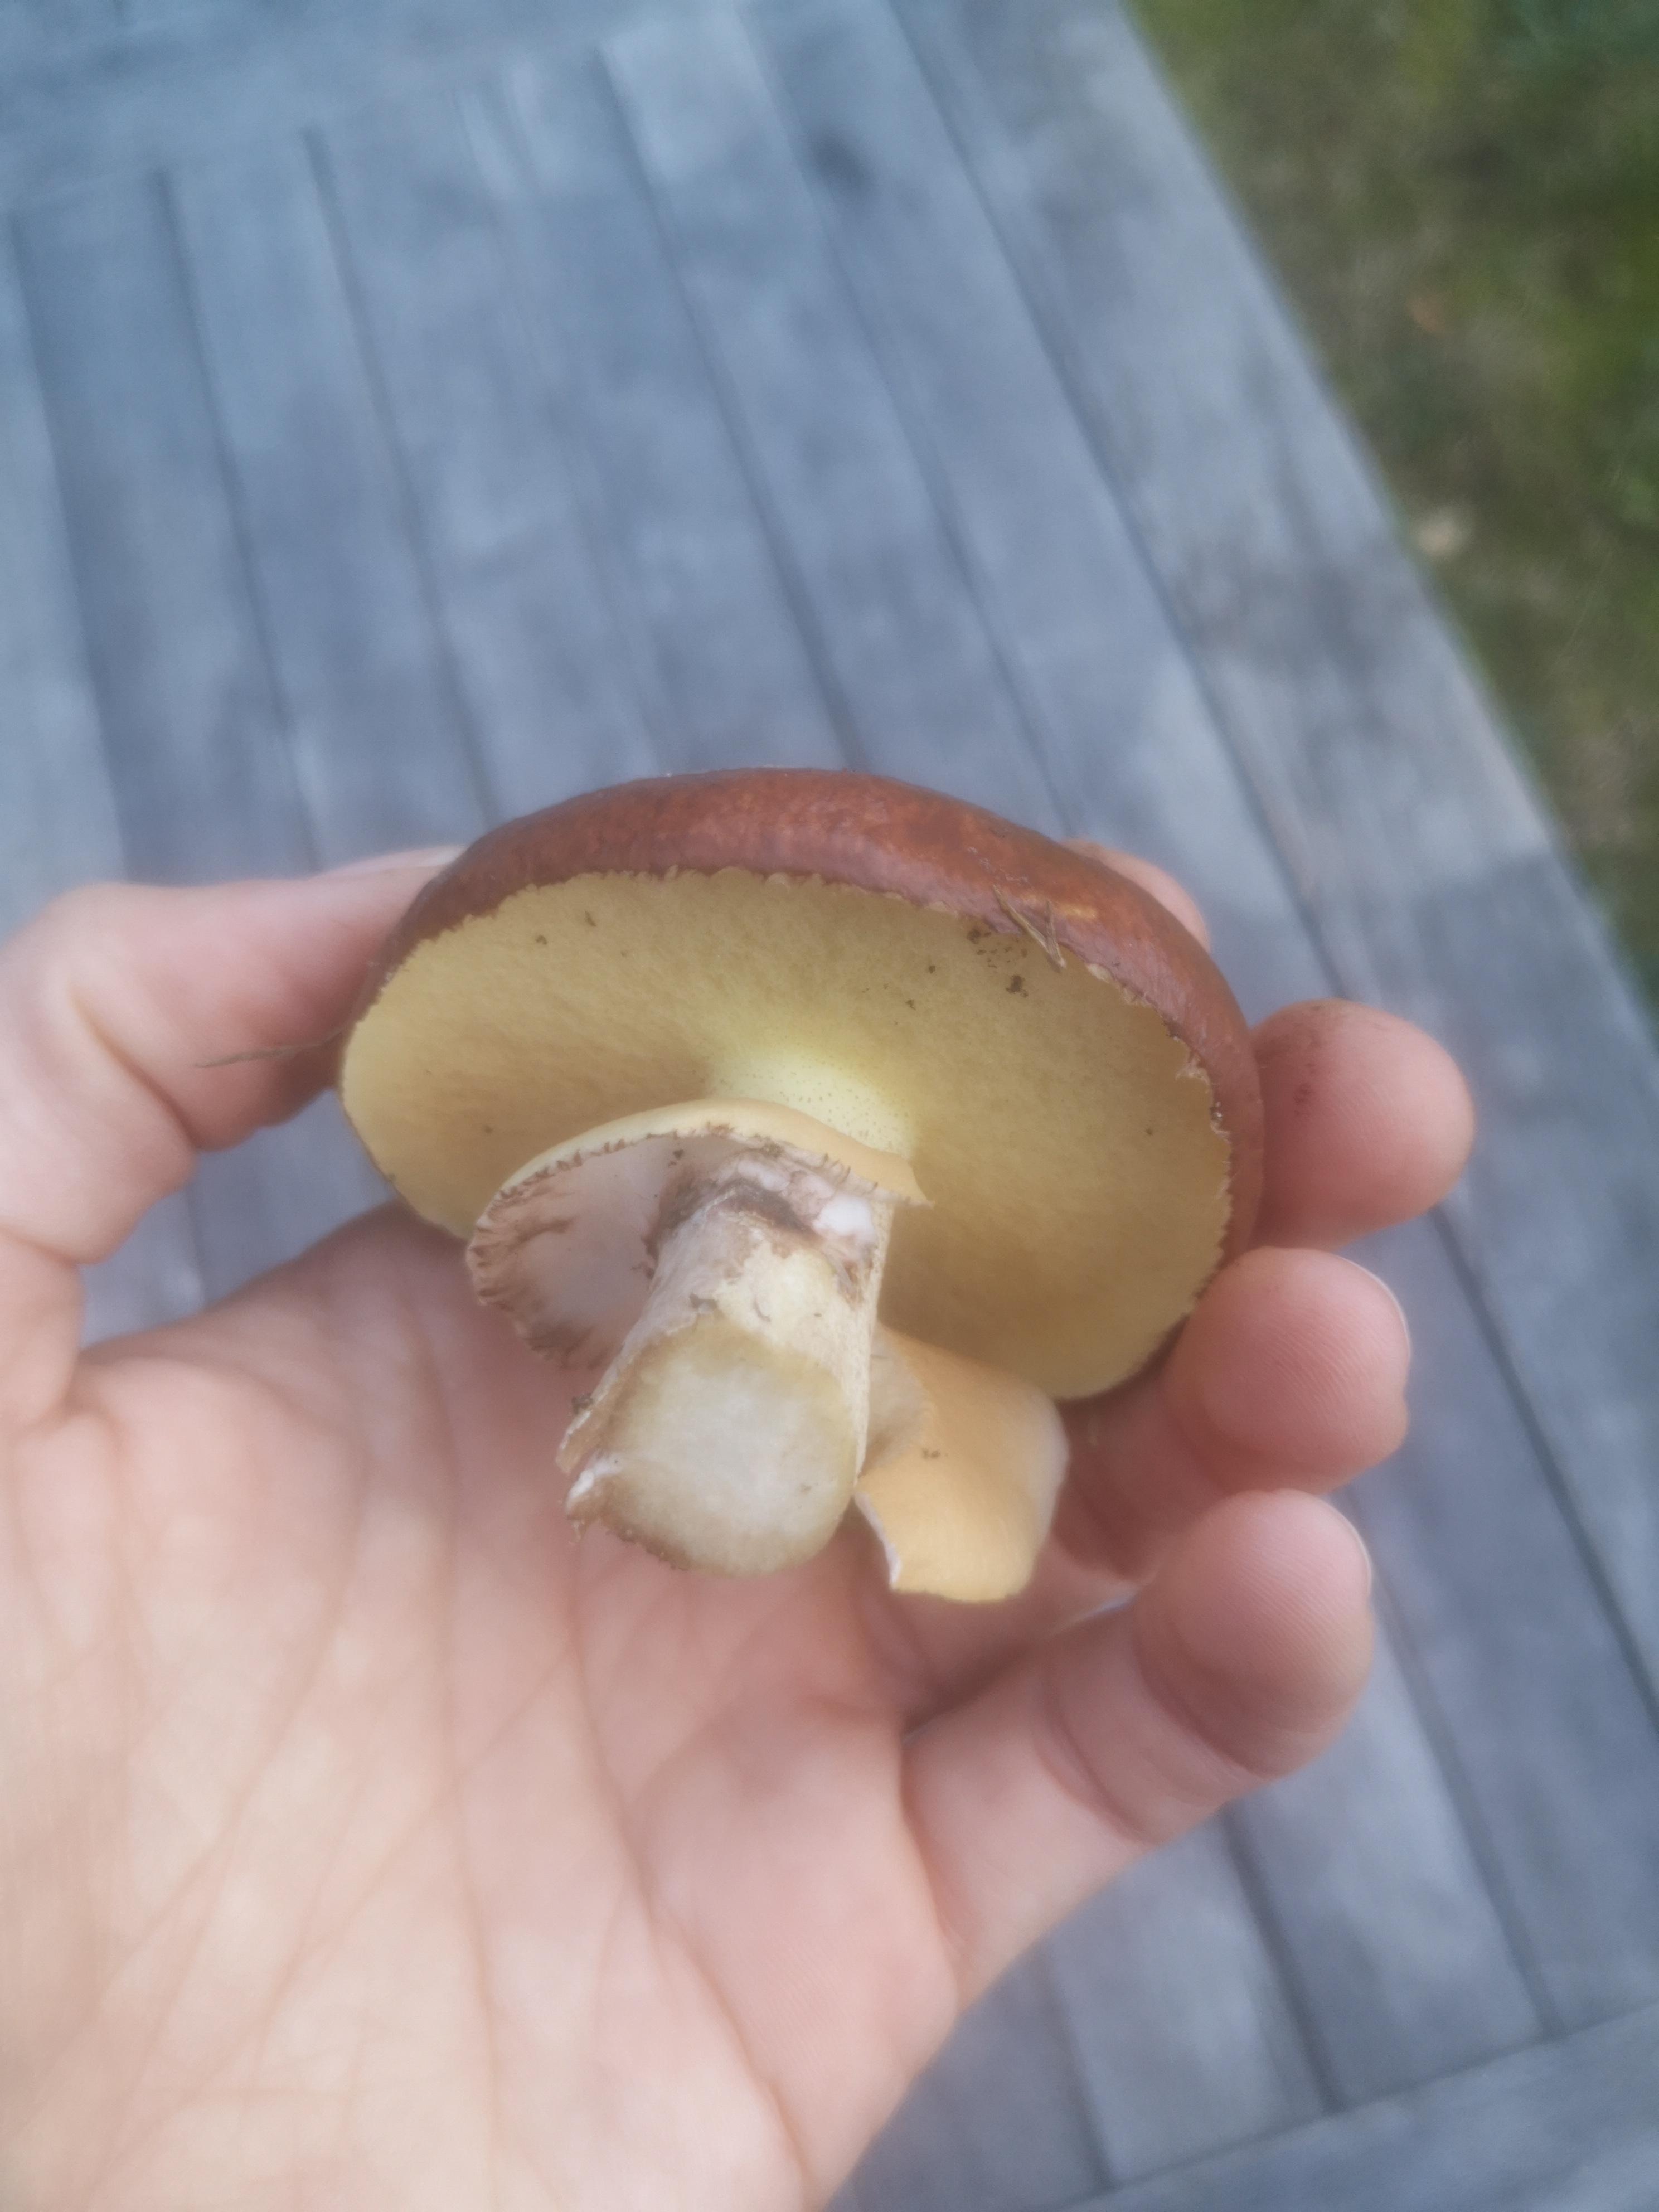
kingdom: Fungi
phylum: Basidiomycota
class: Agaricomycetes
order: Boletales
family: Suillaceae
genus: Suillus
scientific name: Suillus luteus
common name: brungul slimrørhat
